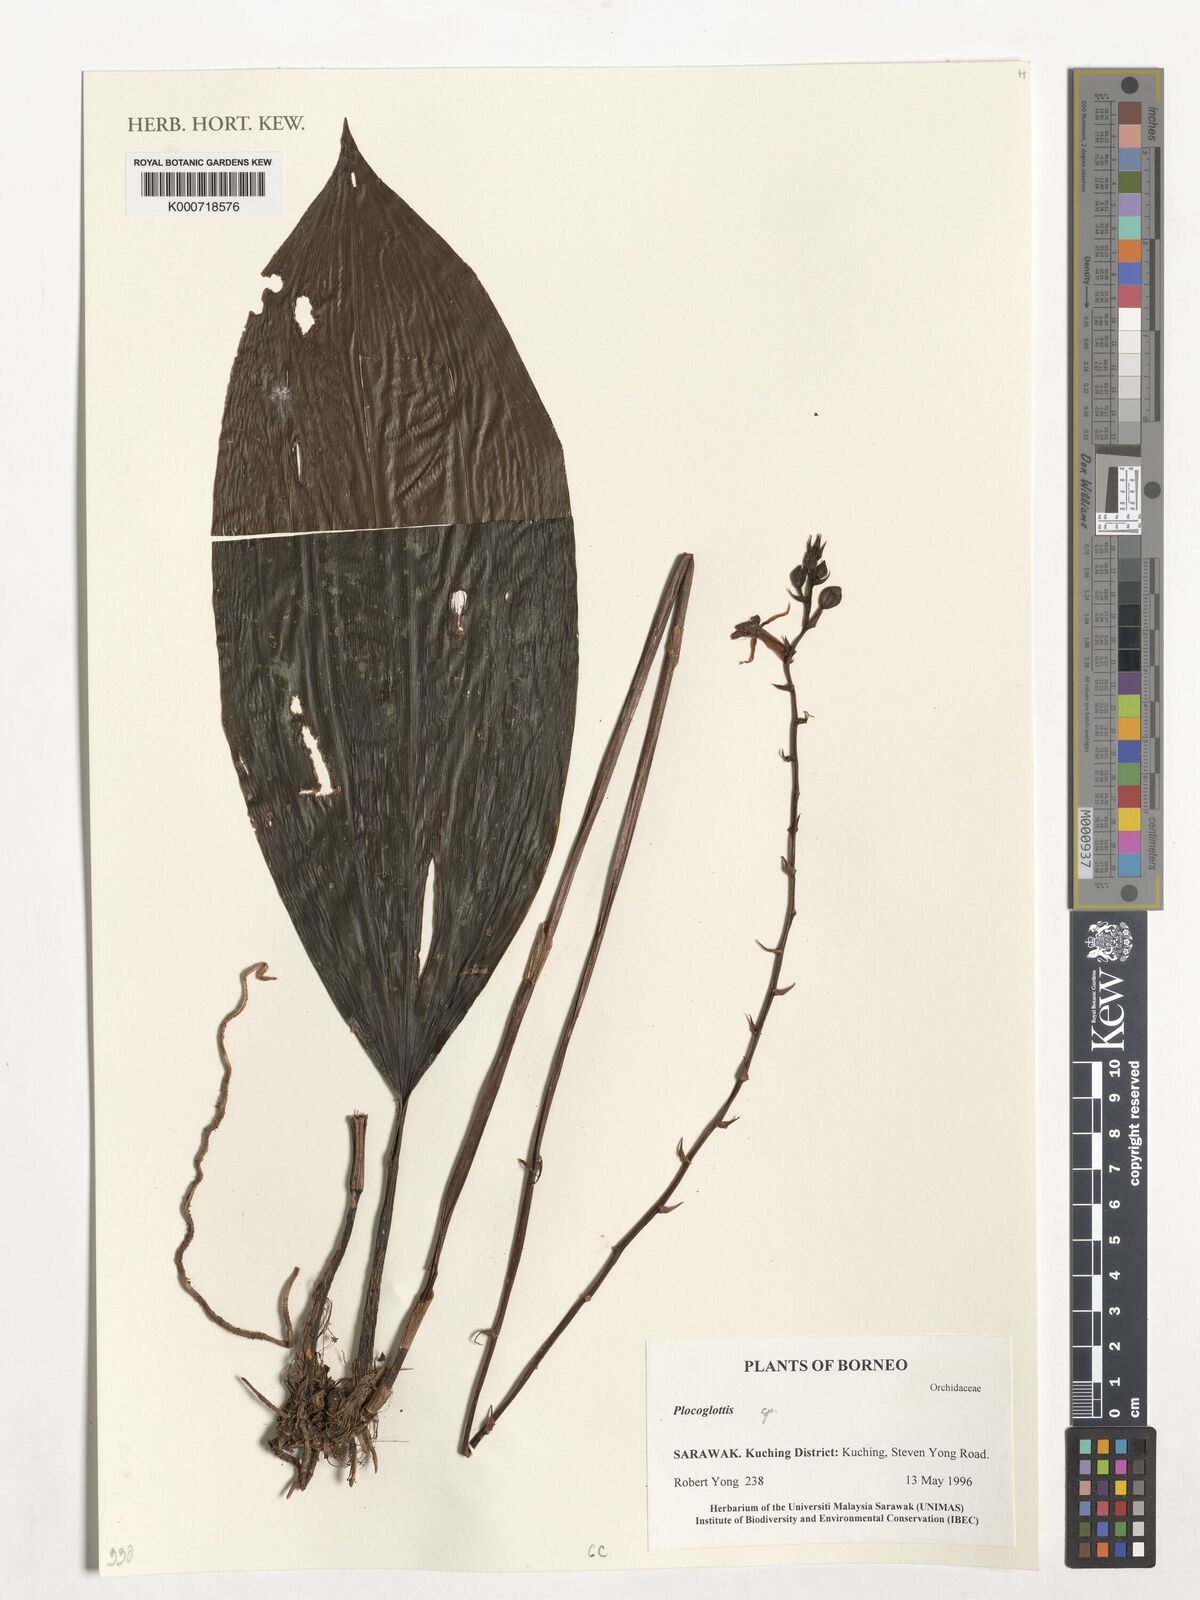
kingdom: Plantae
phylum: Tracheophyta
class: Liliopsida
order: Asparagales
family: Orchidaceae
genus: Plocoglottis
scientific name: Plocoglottis
